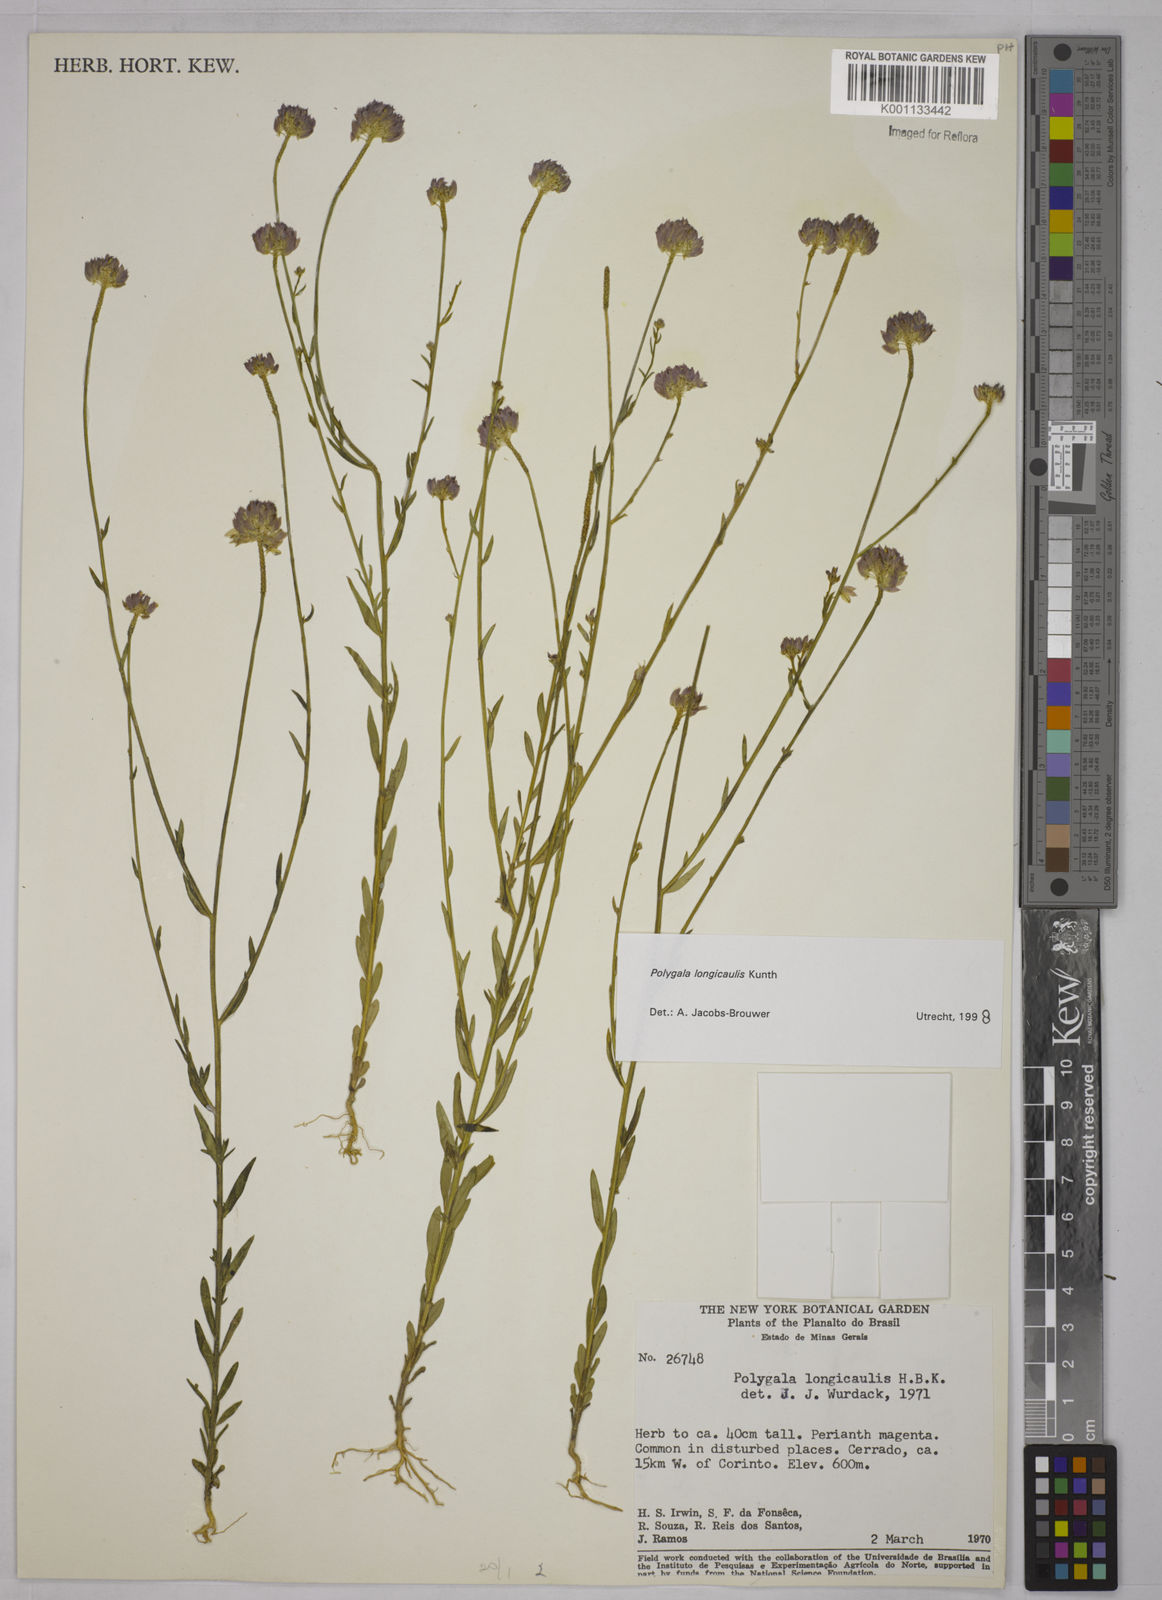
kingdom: Plantae
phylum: Tracheophyta
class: Magnoliopsida
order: Fabales
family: Polygalaceae
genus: Polygala
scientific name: Polygala longicaulis
